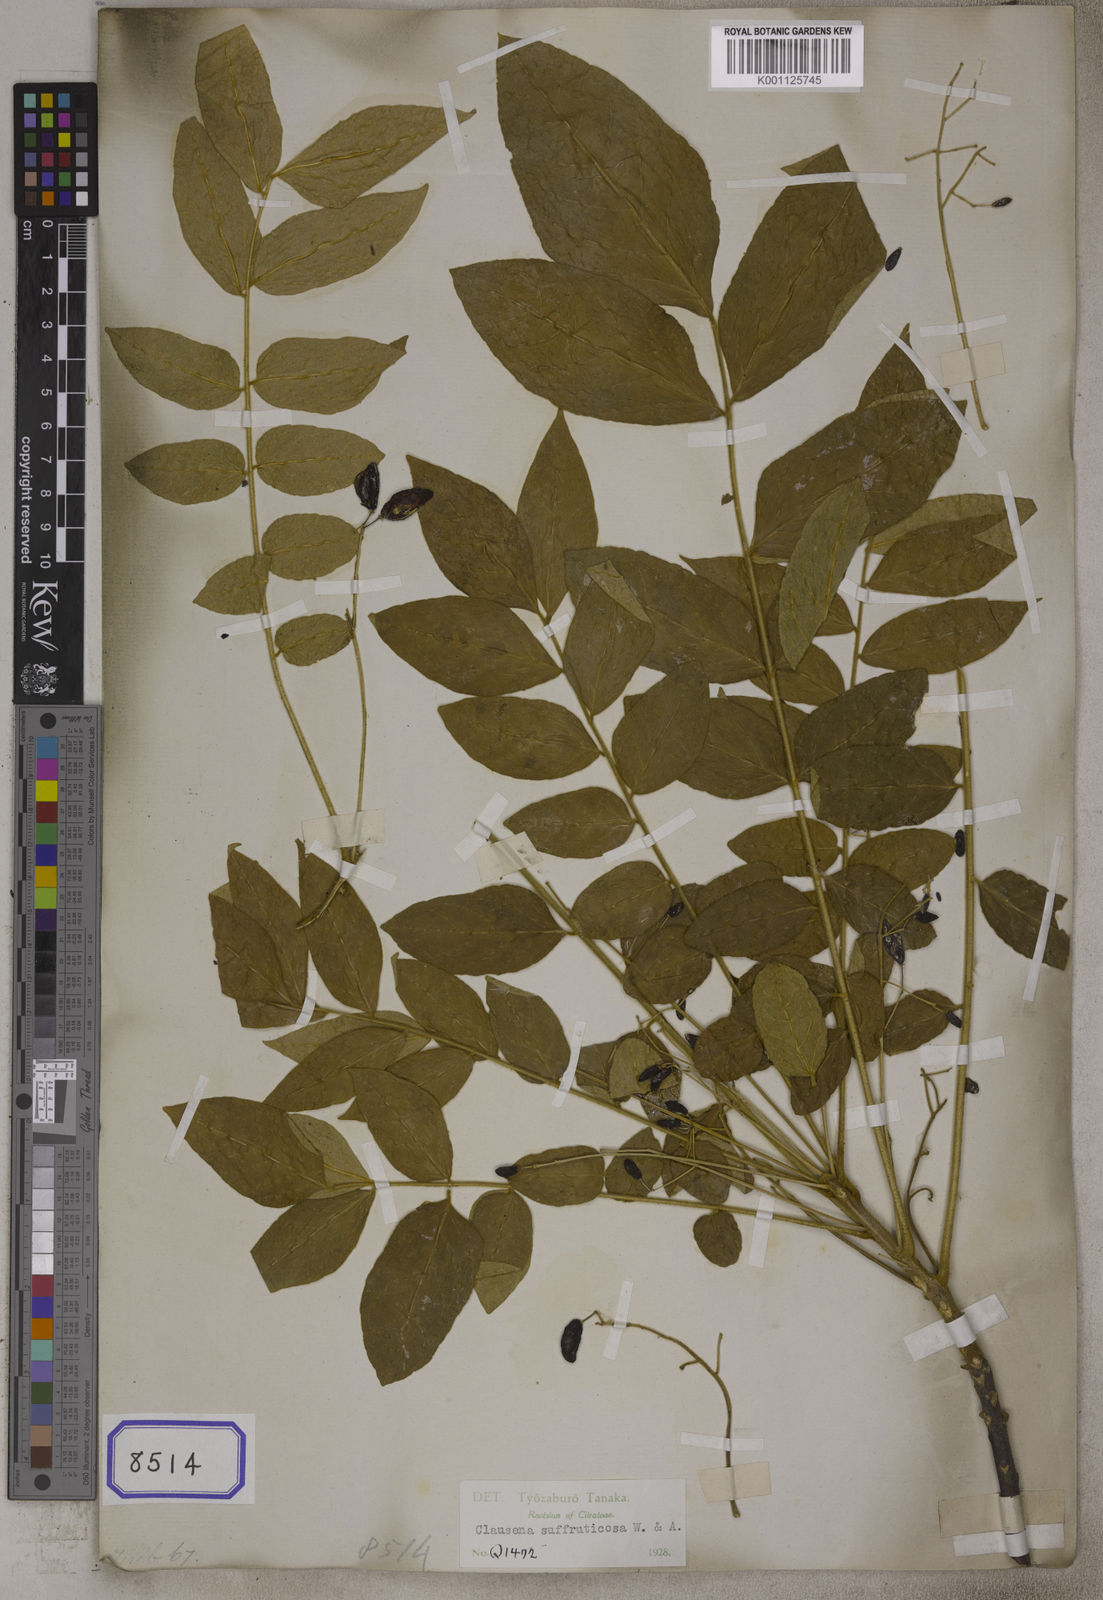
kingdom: Plantae
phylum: Tracheophyta
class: Magnoliopsida
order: Sapindales
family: Rutaceae
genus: Clausena
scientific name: Clausena anisata
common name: Horsewood
